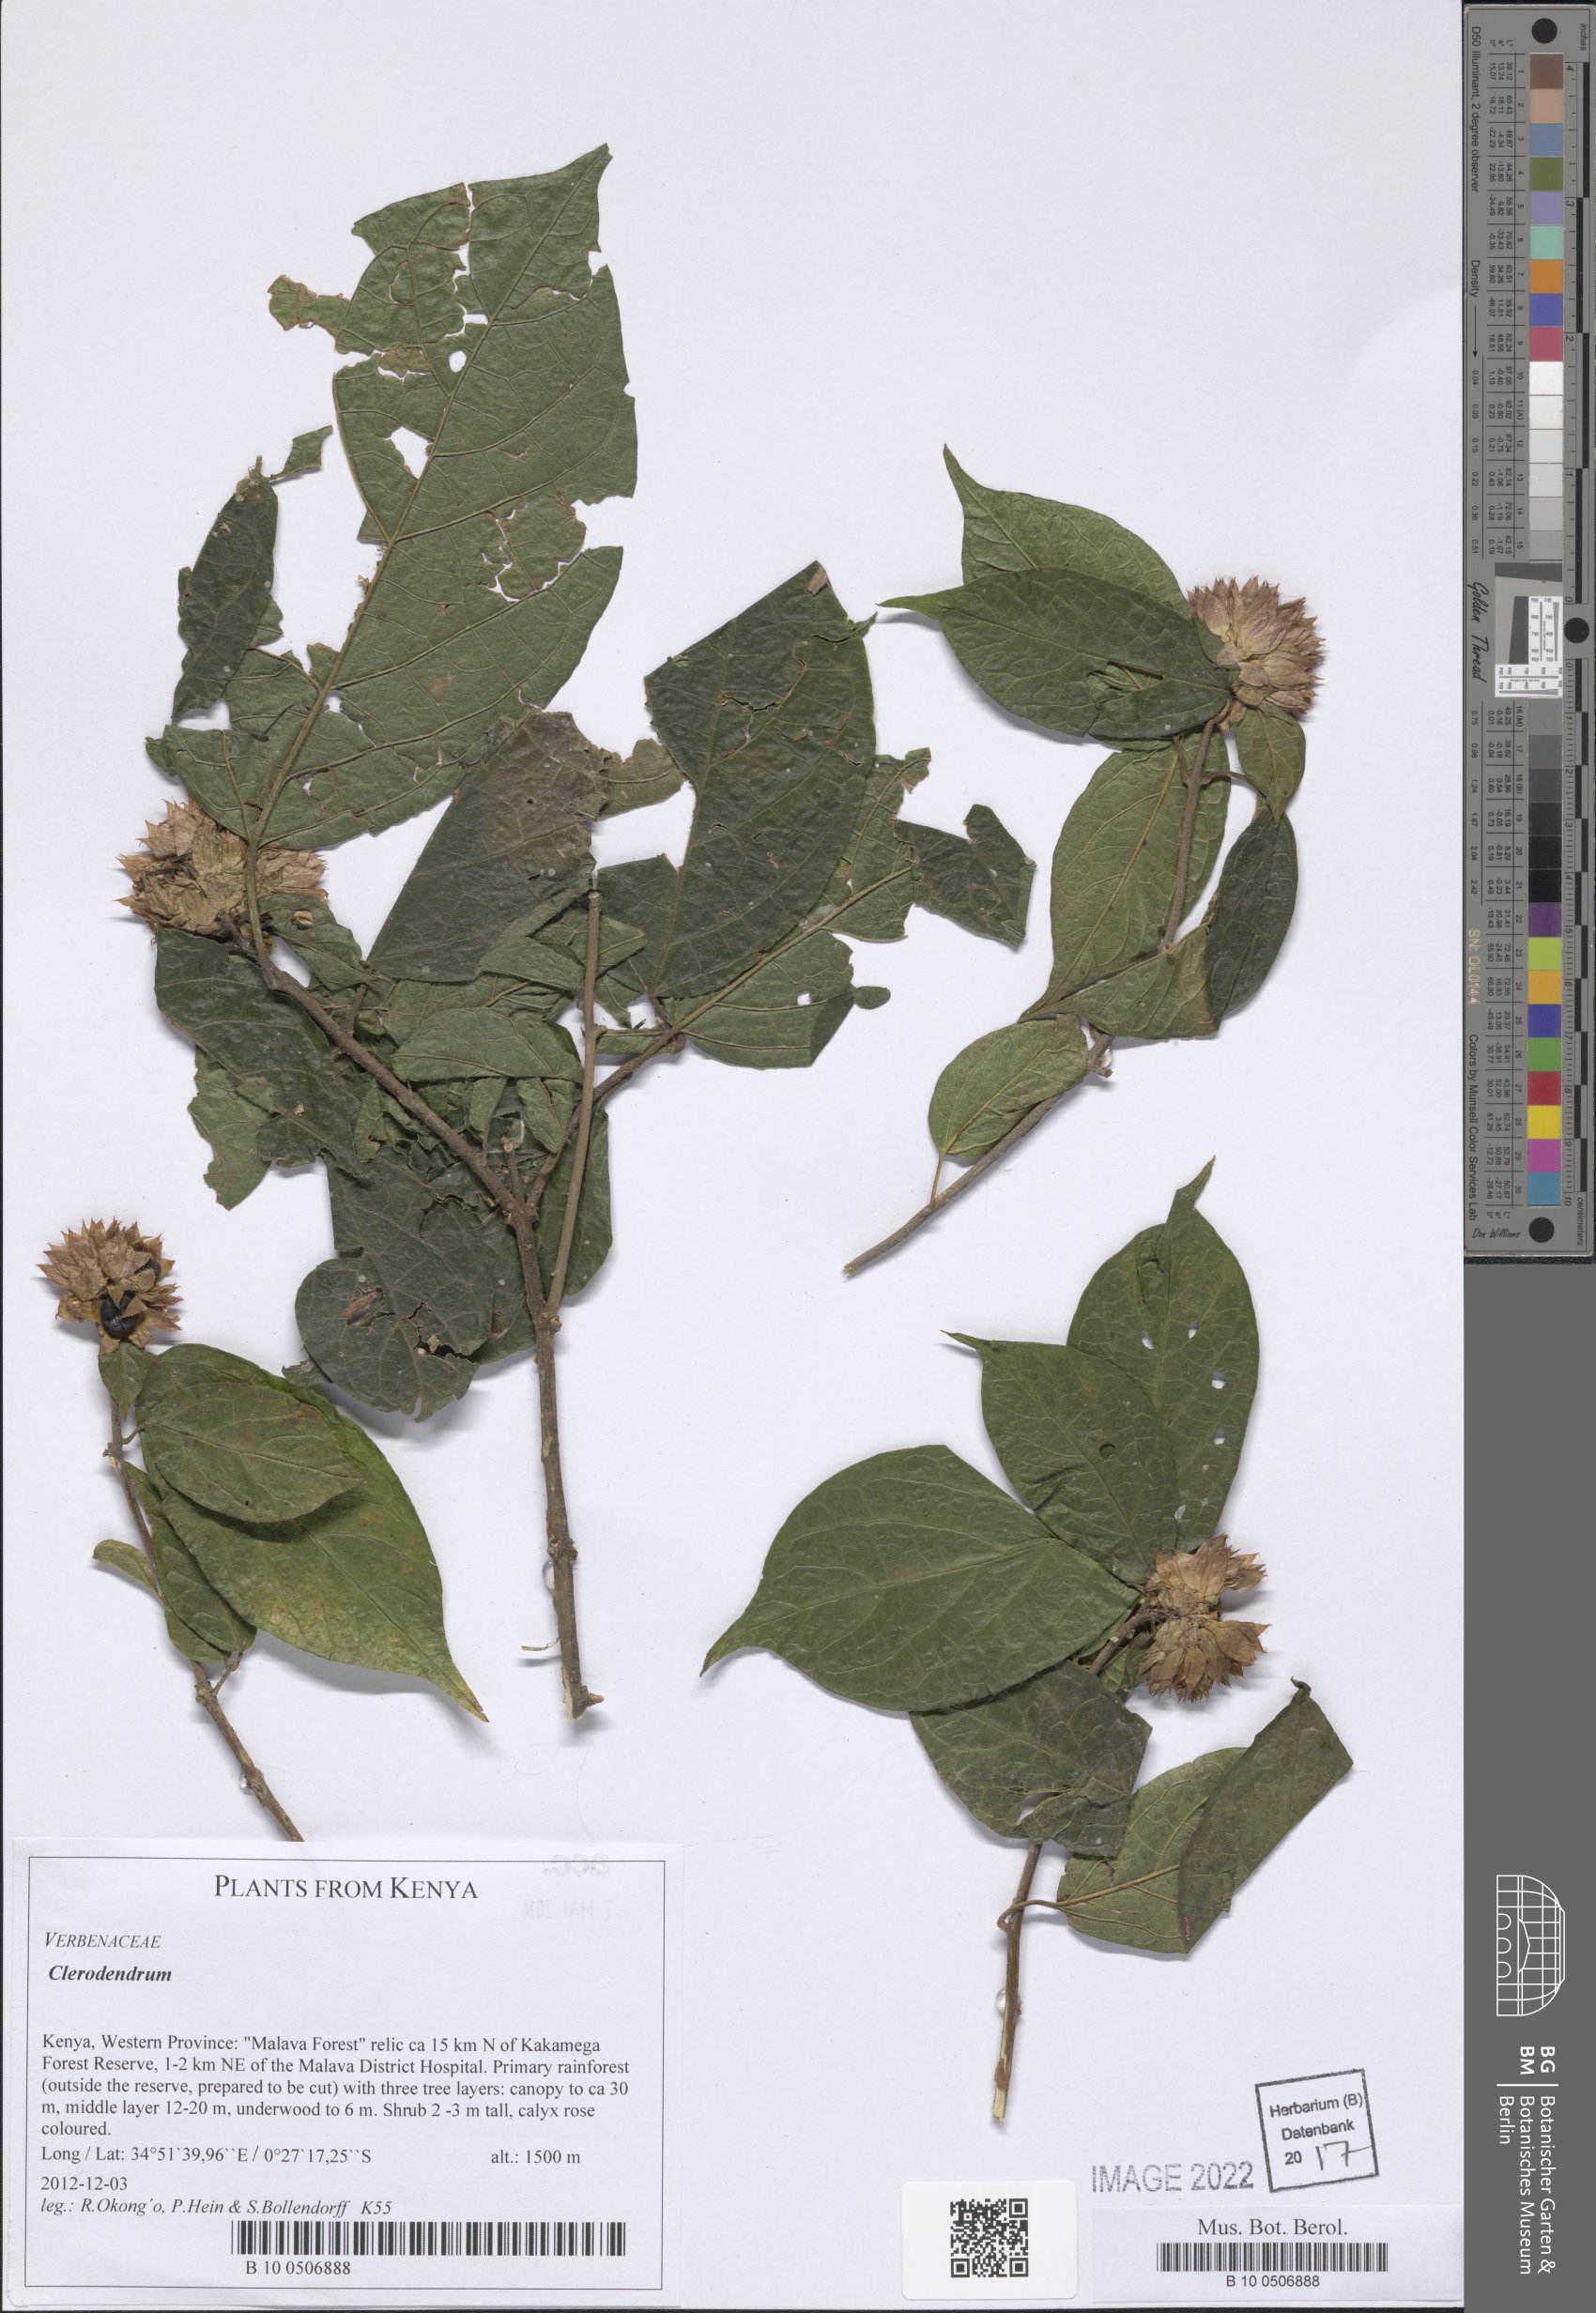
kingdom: Plantae
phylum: Tracheophyta
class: Magnoliopsida
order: Lamiales
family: Lamiaceae
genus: Clerodendrum
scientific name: Clerodendrum
